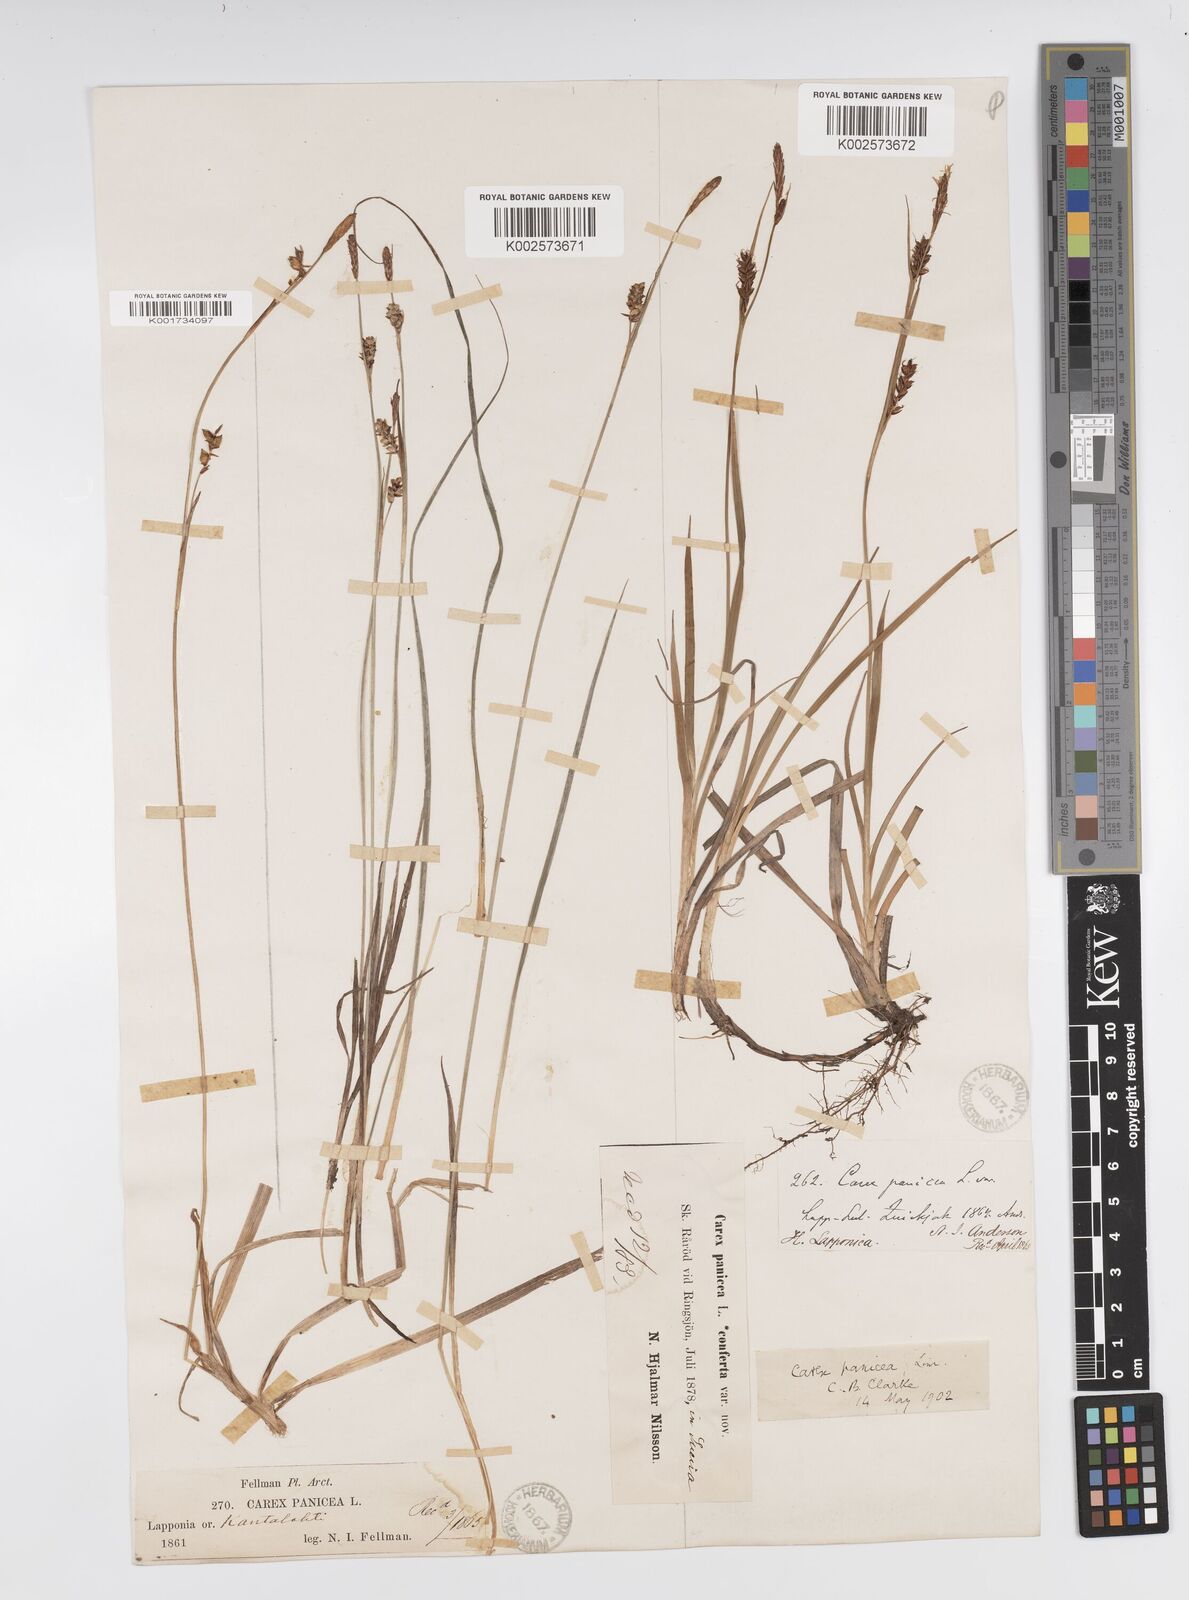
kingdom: Plantae
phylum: Tracheophyta
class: Liliopsida
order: Poales
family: Cyperaceae
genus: Carex
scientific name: Carex panicea
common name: Carnation sedge
